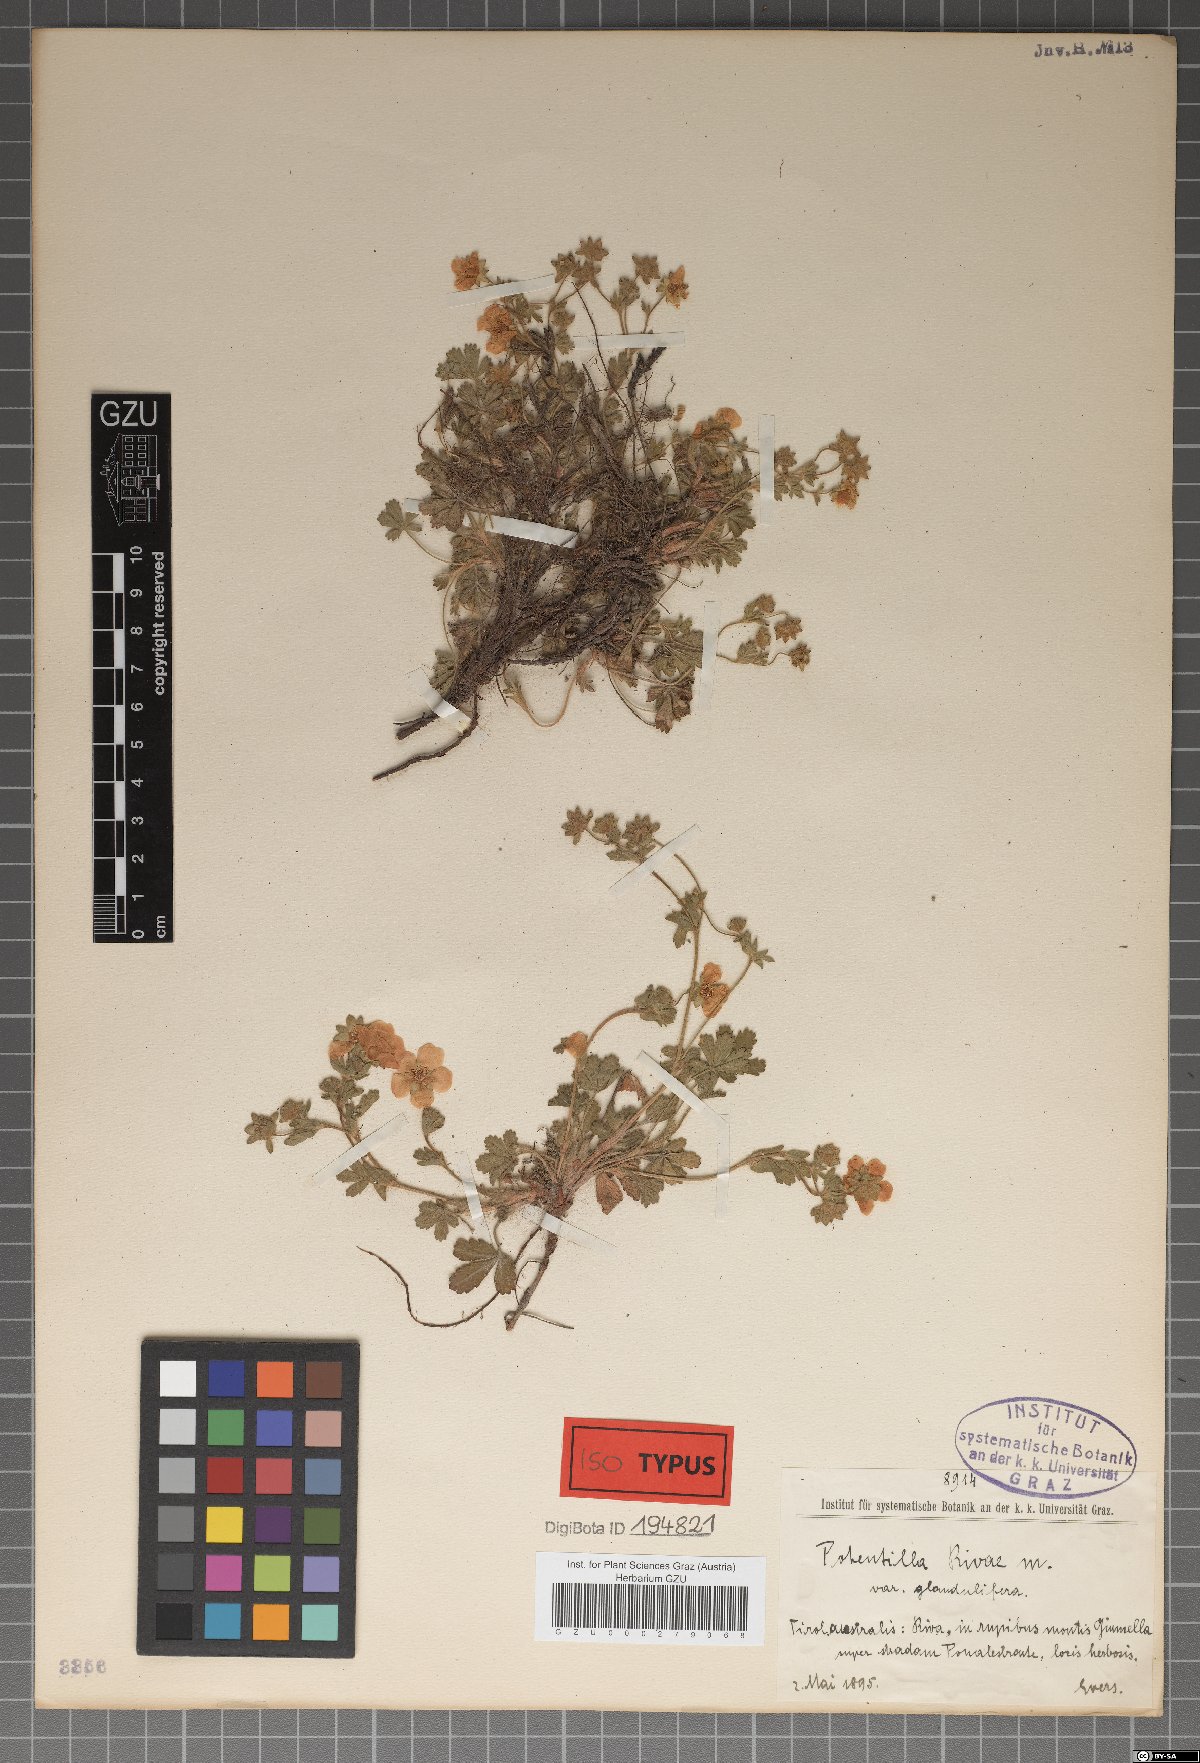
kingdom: Plantae
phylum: Tracheophyta
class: Magnoliopsida
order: Rosales
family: Rosaceae
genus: Potentilla
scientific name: Potentilla pusilla
